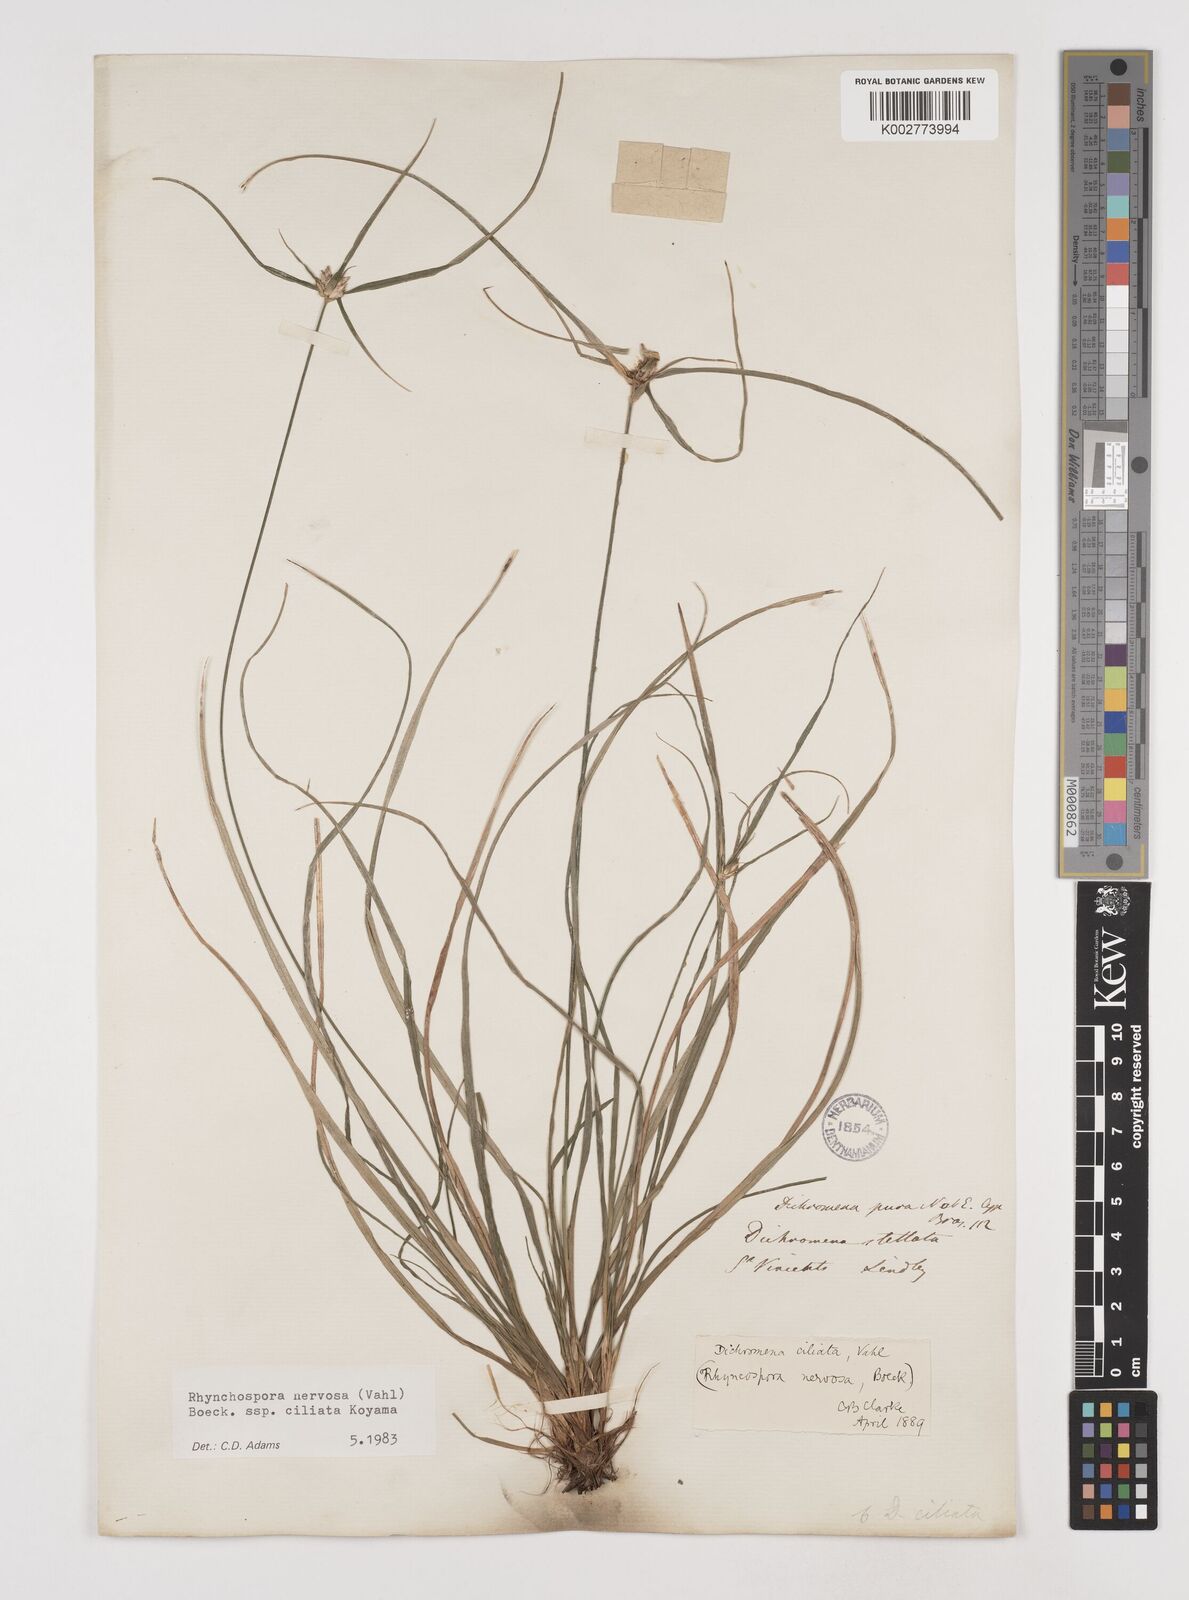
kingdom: Plantae
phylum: Tracheophyta
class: Liliopsida
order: Poales
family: Cyperaceae
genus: Rhynchospora
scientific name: Rhynchospora pura
